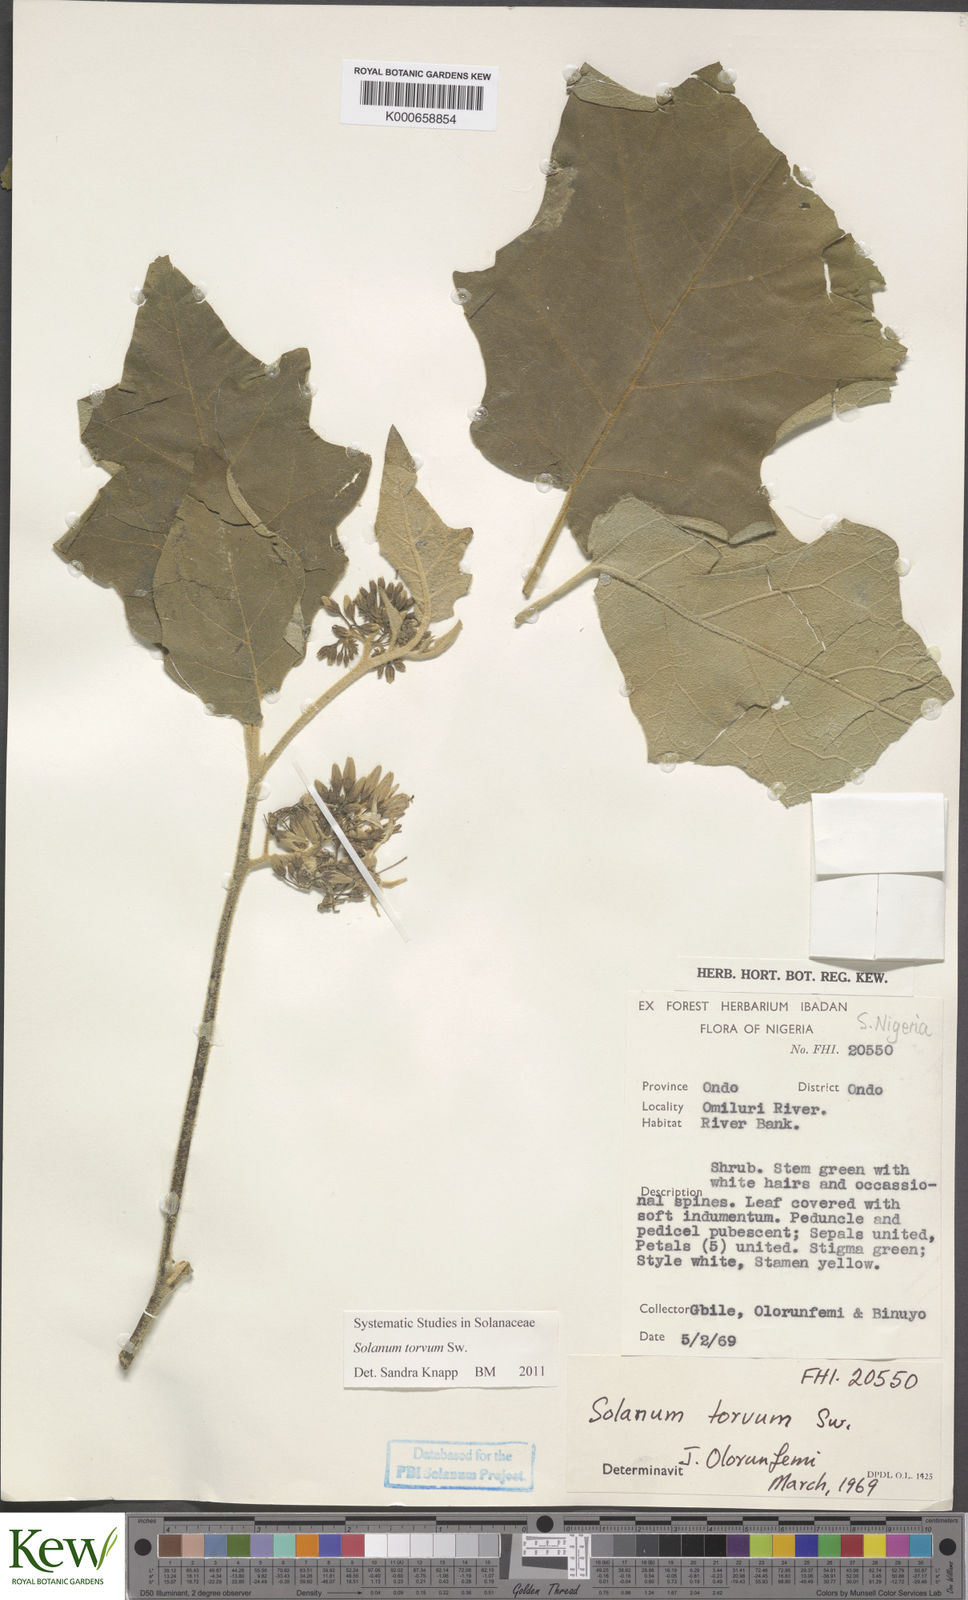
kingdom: Plantae
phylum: Tracheophyta
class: Magnoliopsida
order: Solanales
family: Solanaceae
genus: Solanum
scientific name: Solanum torvum
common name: Turkey berry
